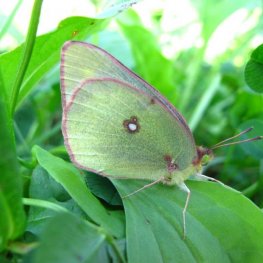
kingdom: Animalia
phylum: Arthropoda
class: Insecta
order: Lepidoptera
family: Pieridae
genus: Colias
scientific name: Colias philodice
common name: Clouded Sulphur
